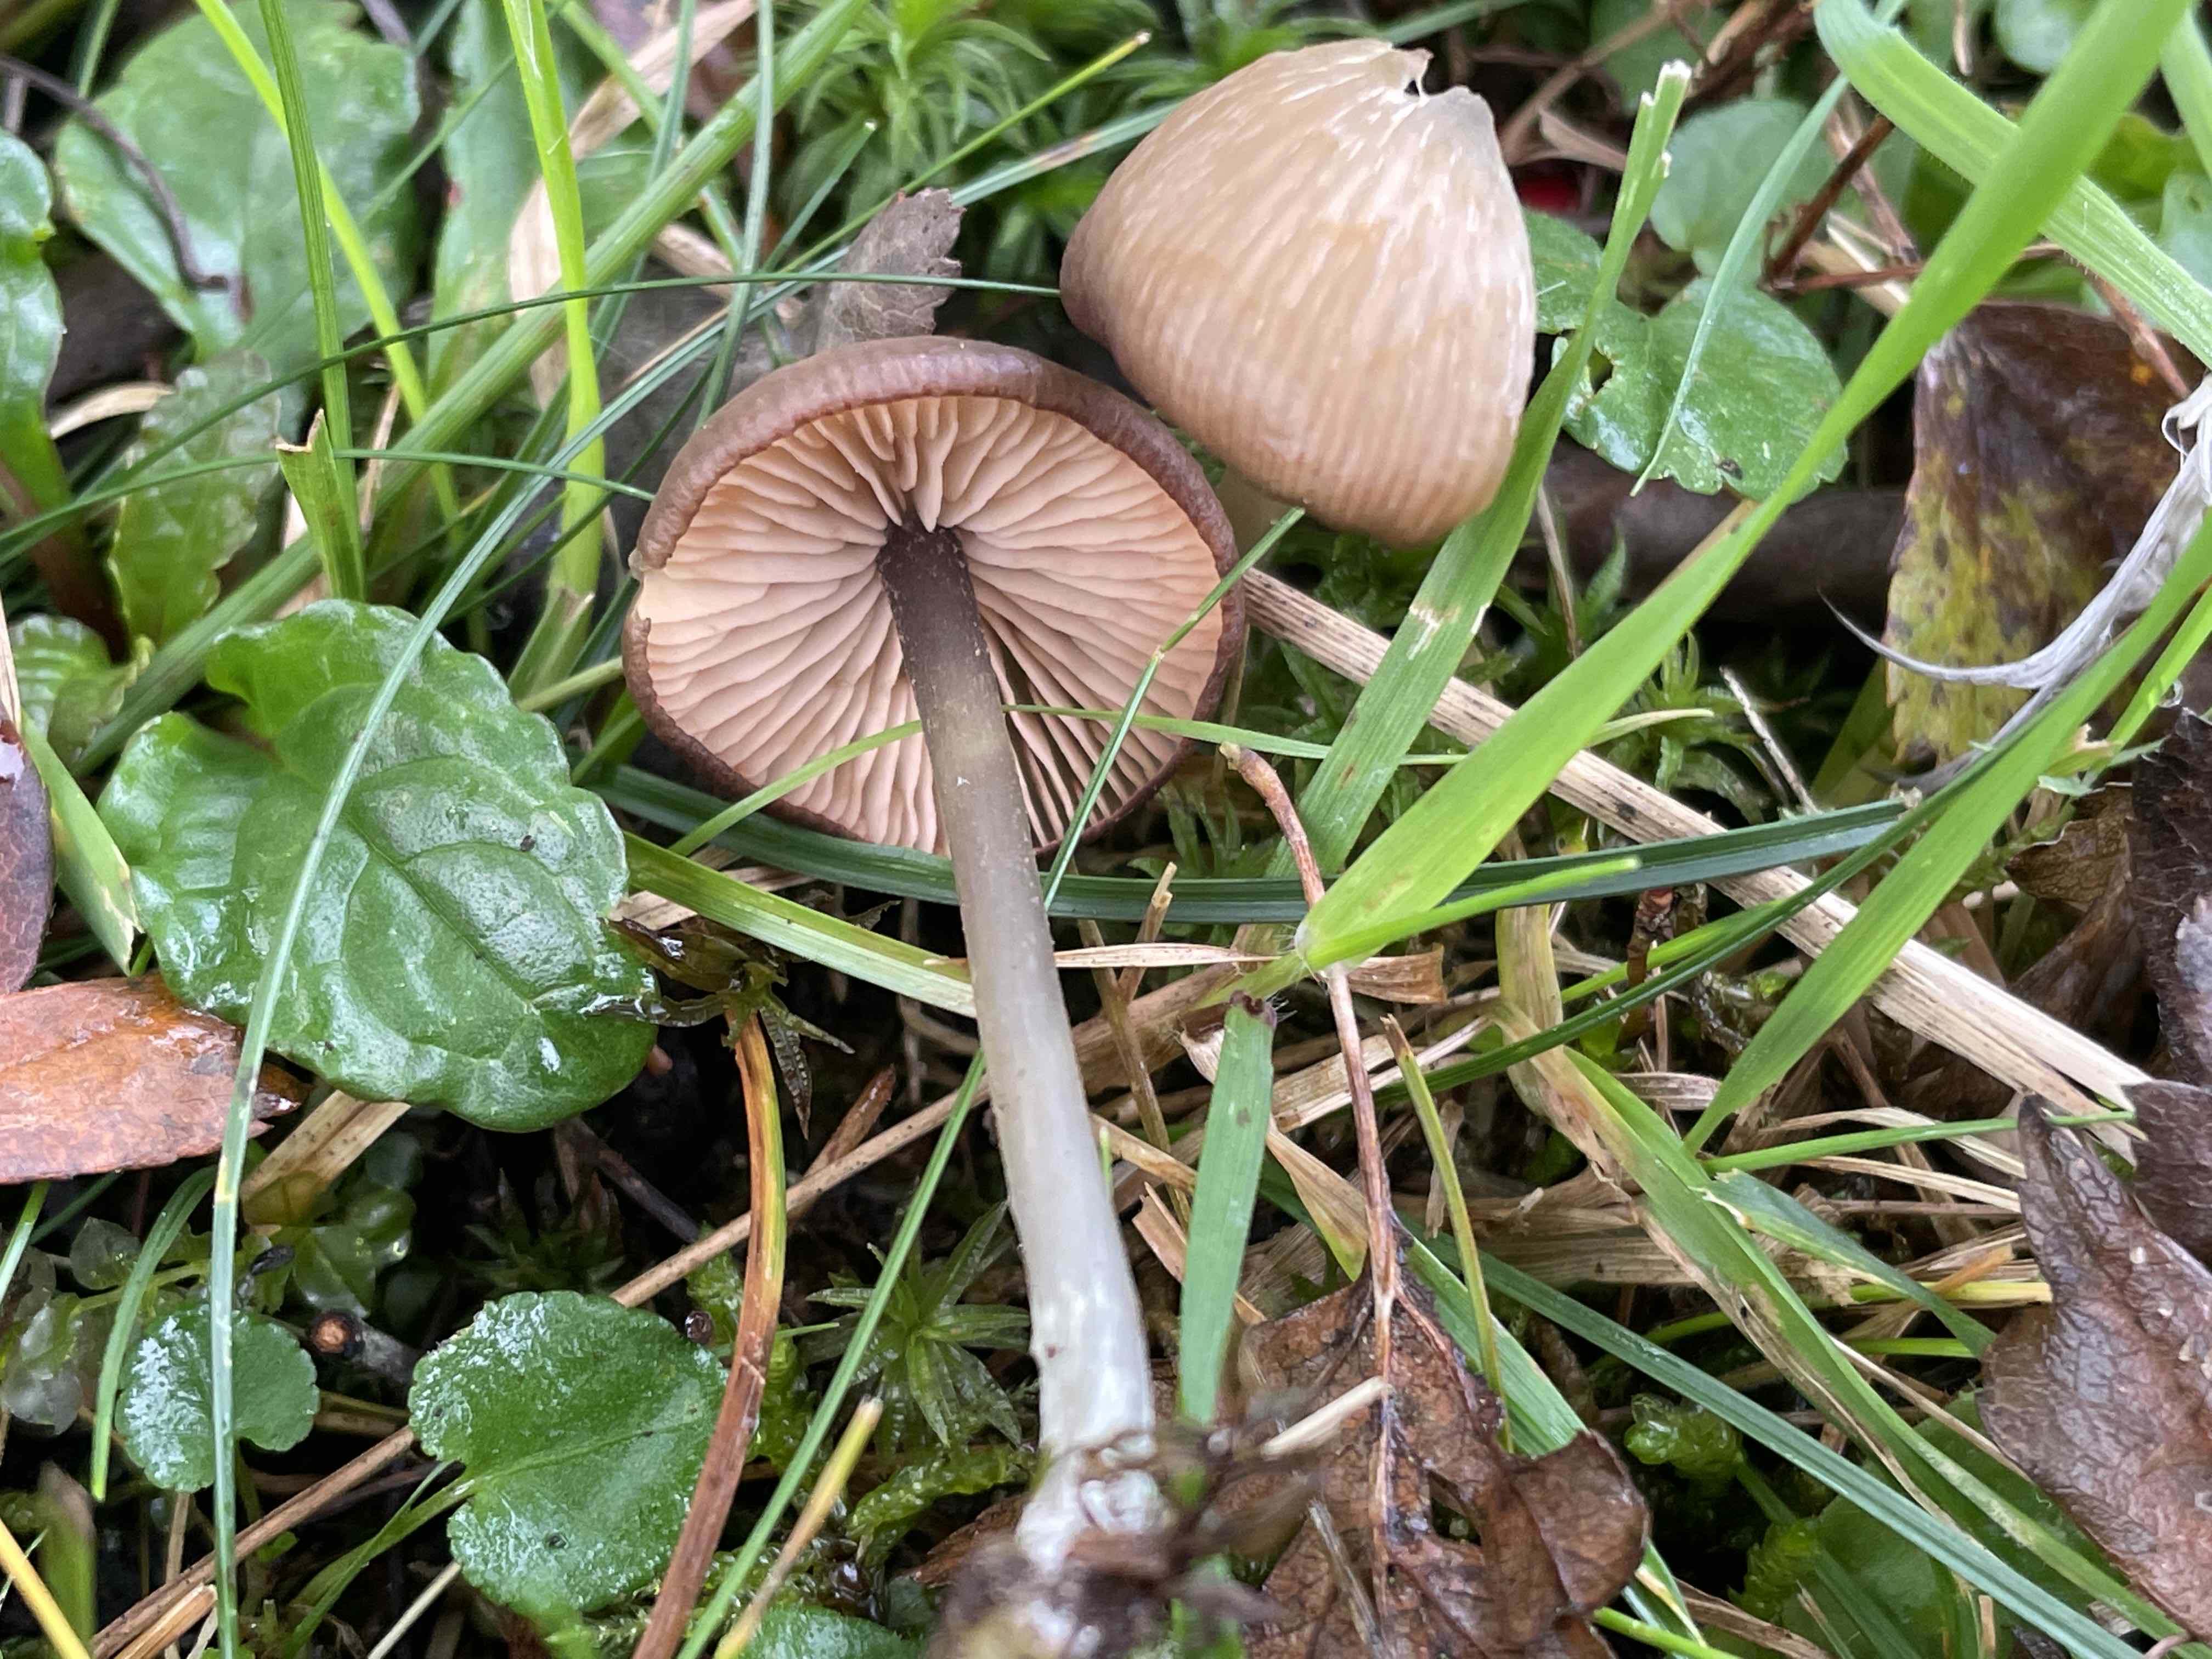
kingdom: Fungi
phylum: Basidiomycota
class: Agaricomycetes
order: Agaricales
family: Entolomataceae
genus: Entoloma
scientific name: Entoloma
